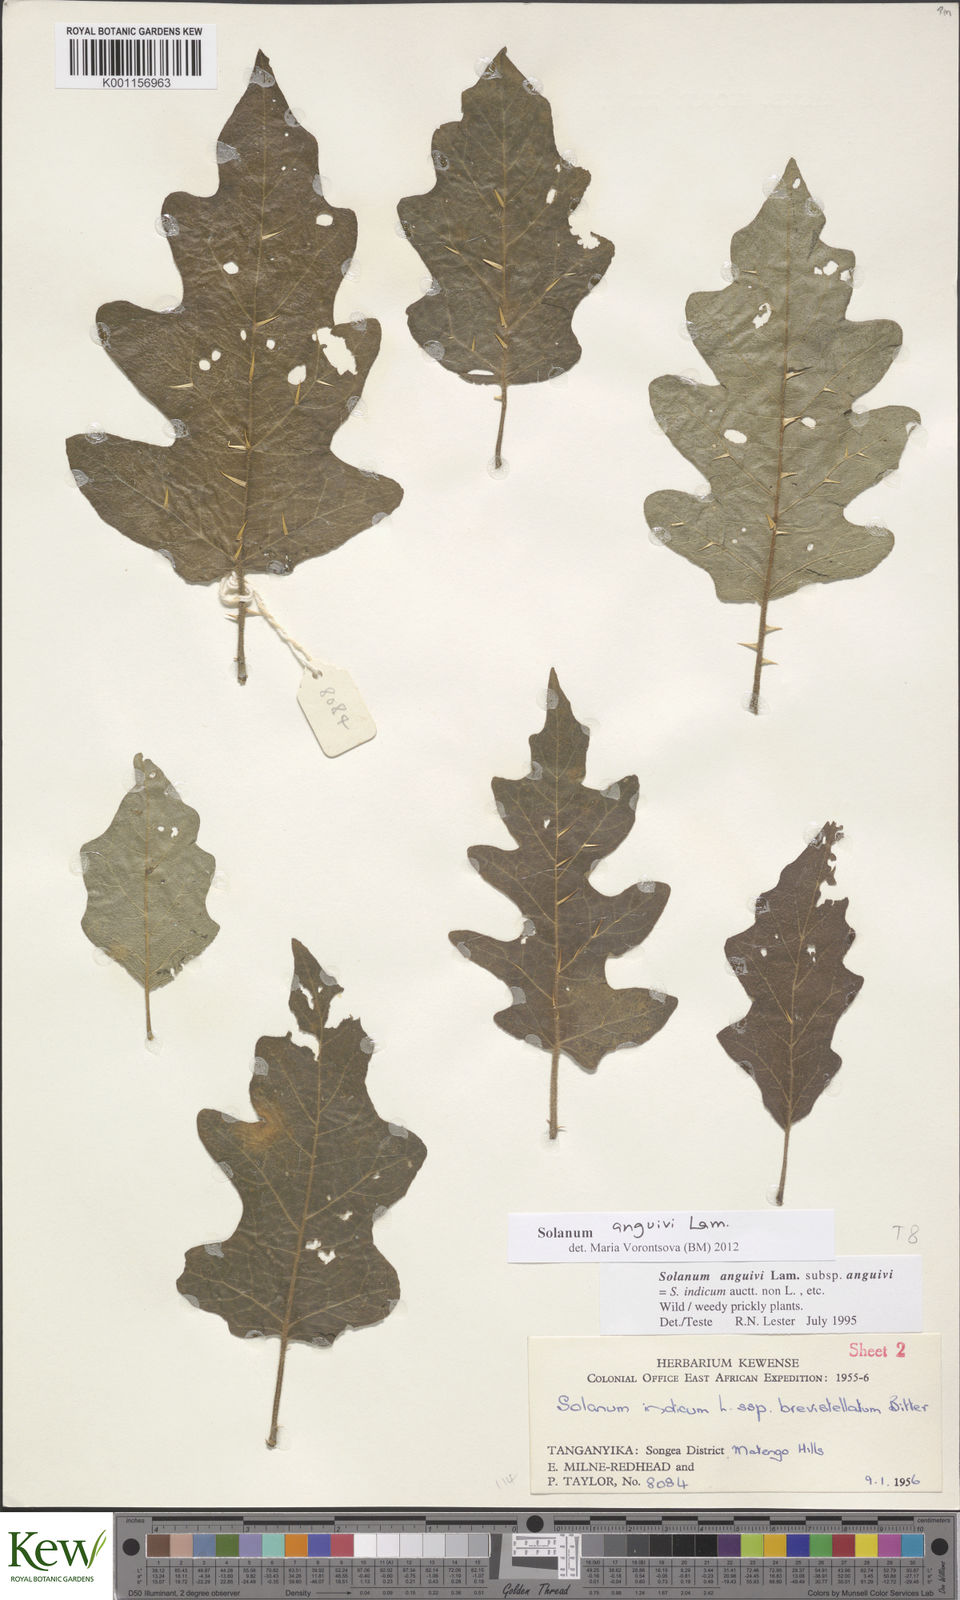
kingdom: Plantae
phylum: Tracheophyta
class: Magnoliopsida
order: Solanales
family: Solanaceae
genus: Solanum
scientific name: Solanum anguivi
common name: Forest bitterberry
